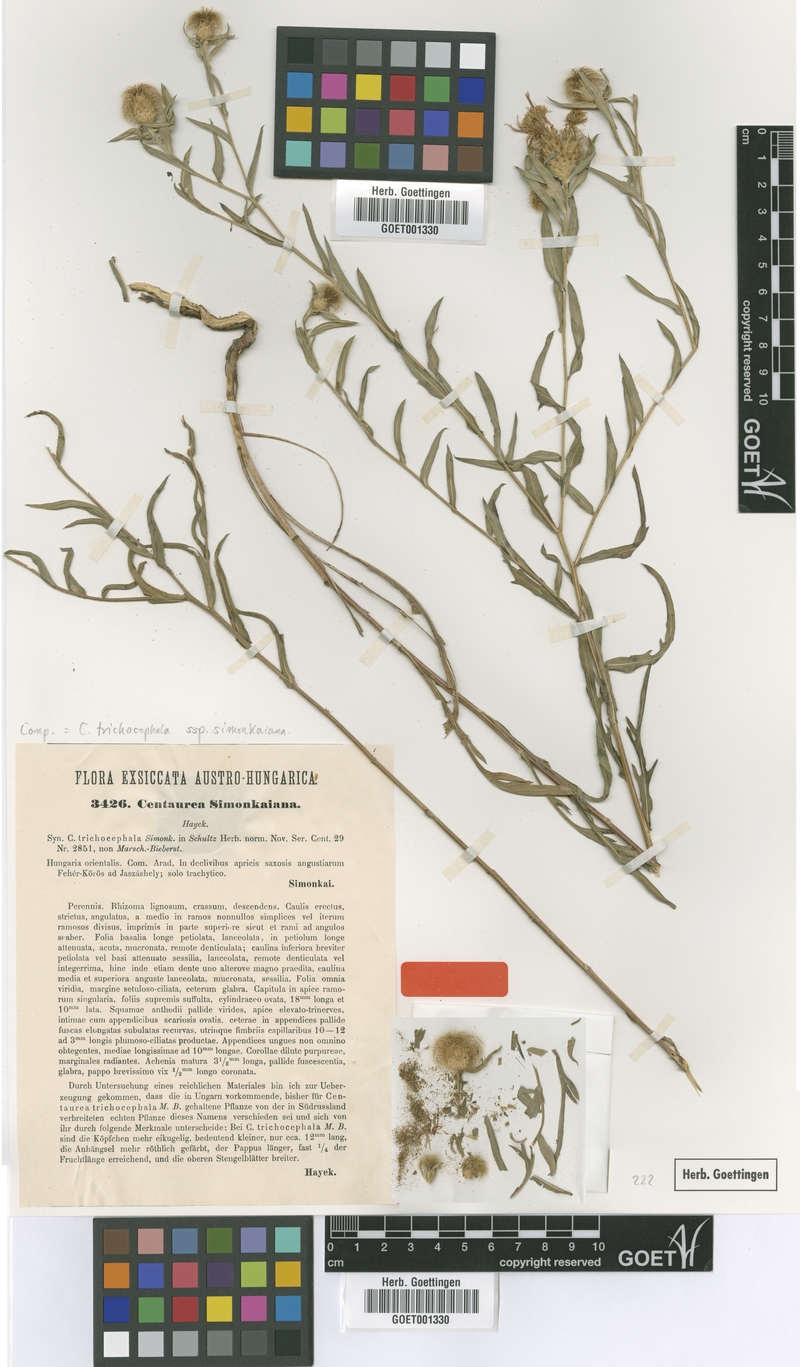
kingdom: Plantae
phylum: Tracheophyta
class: Magnoliopsida
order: Asterales
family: Asteraceae
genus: Centaurea
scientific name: Centaurea simonkaiana
